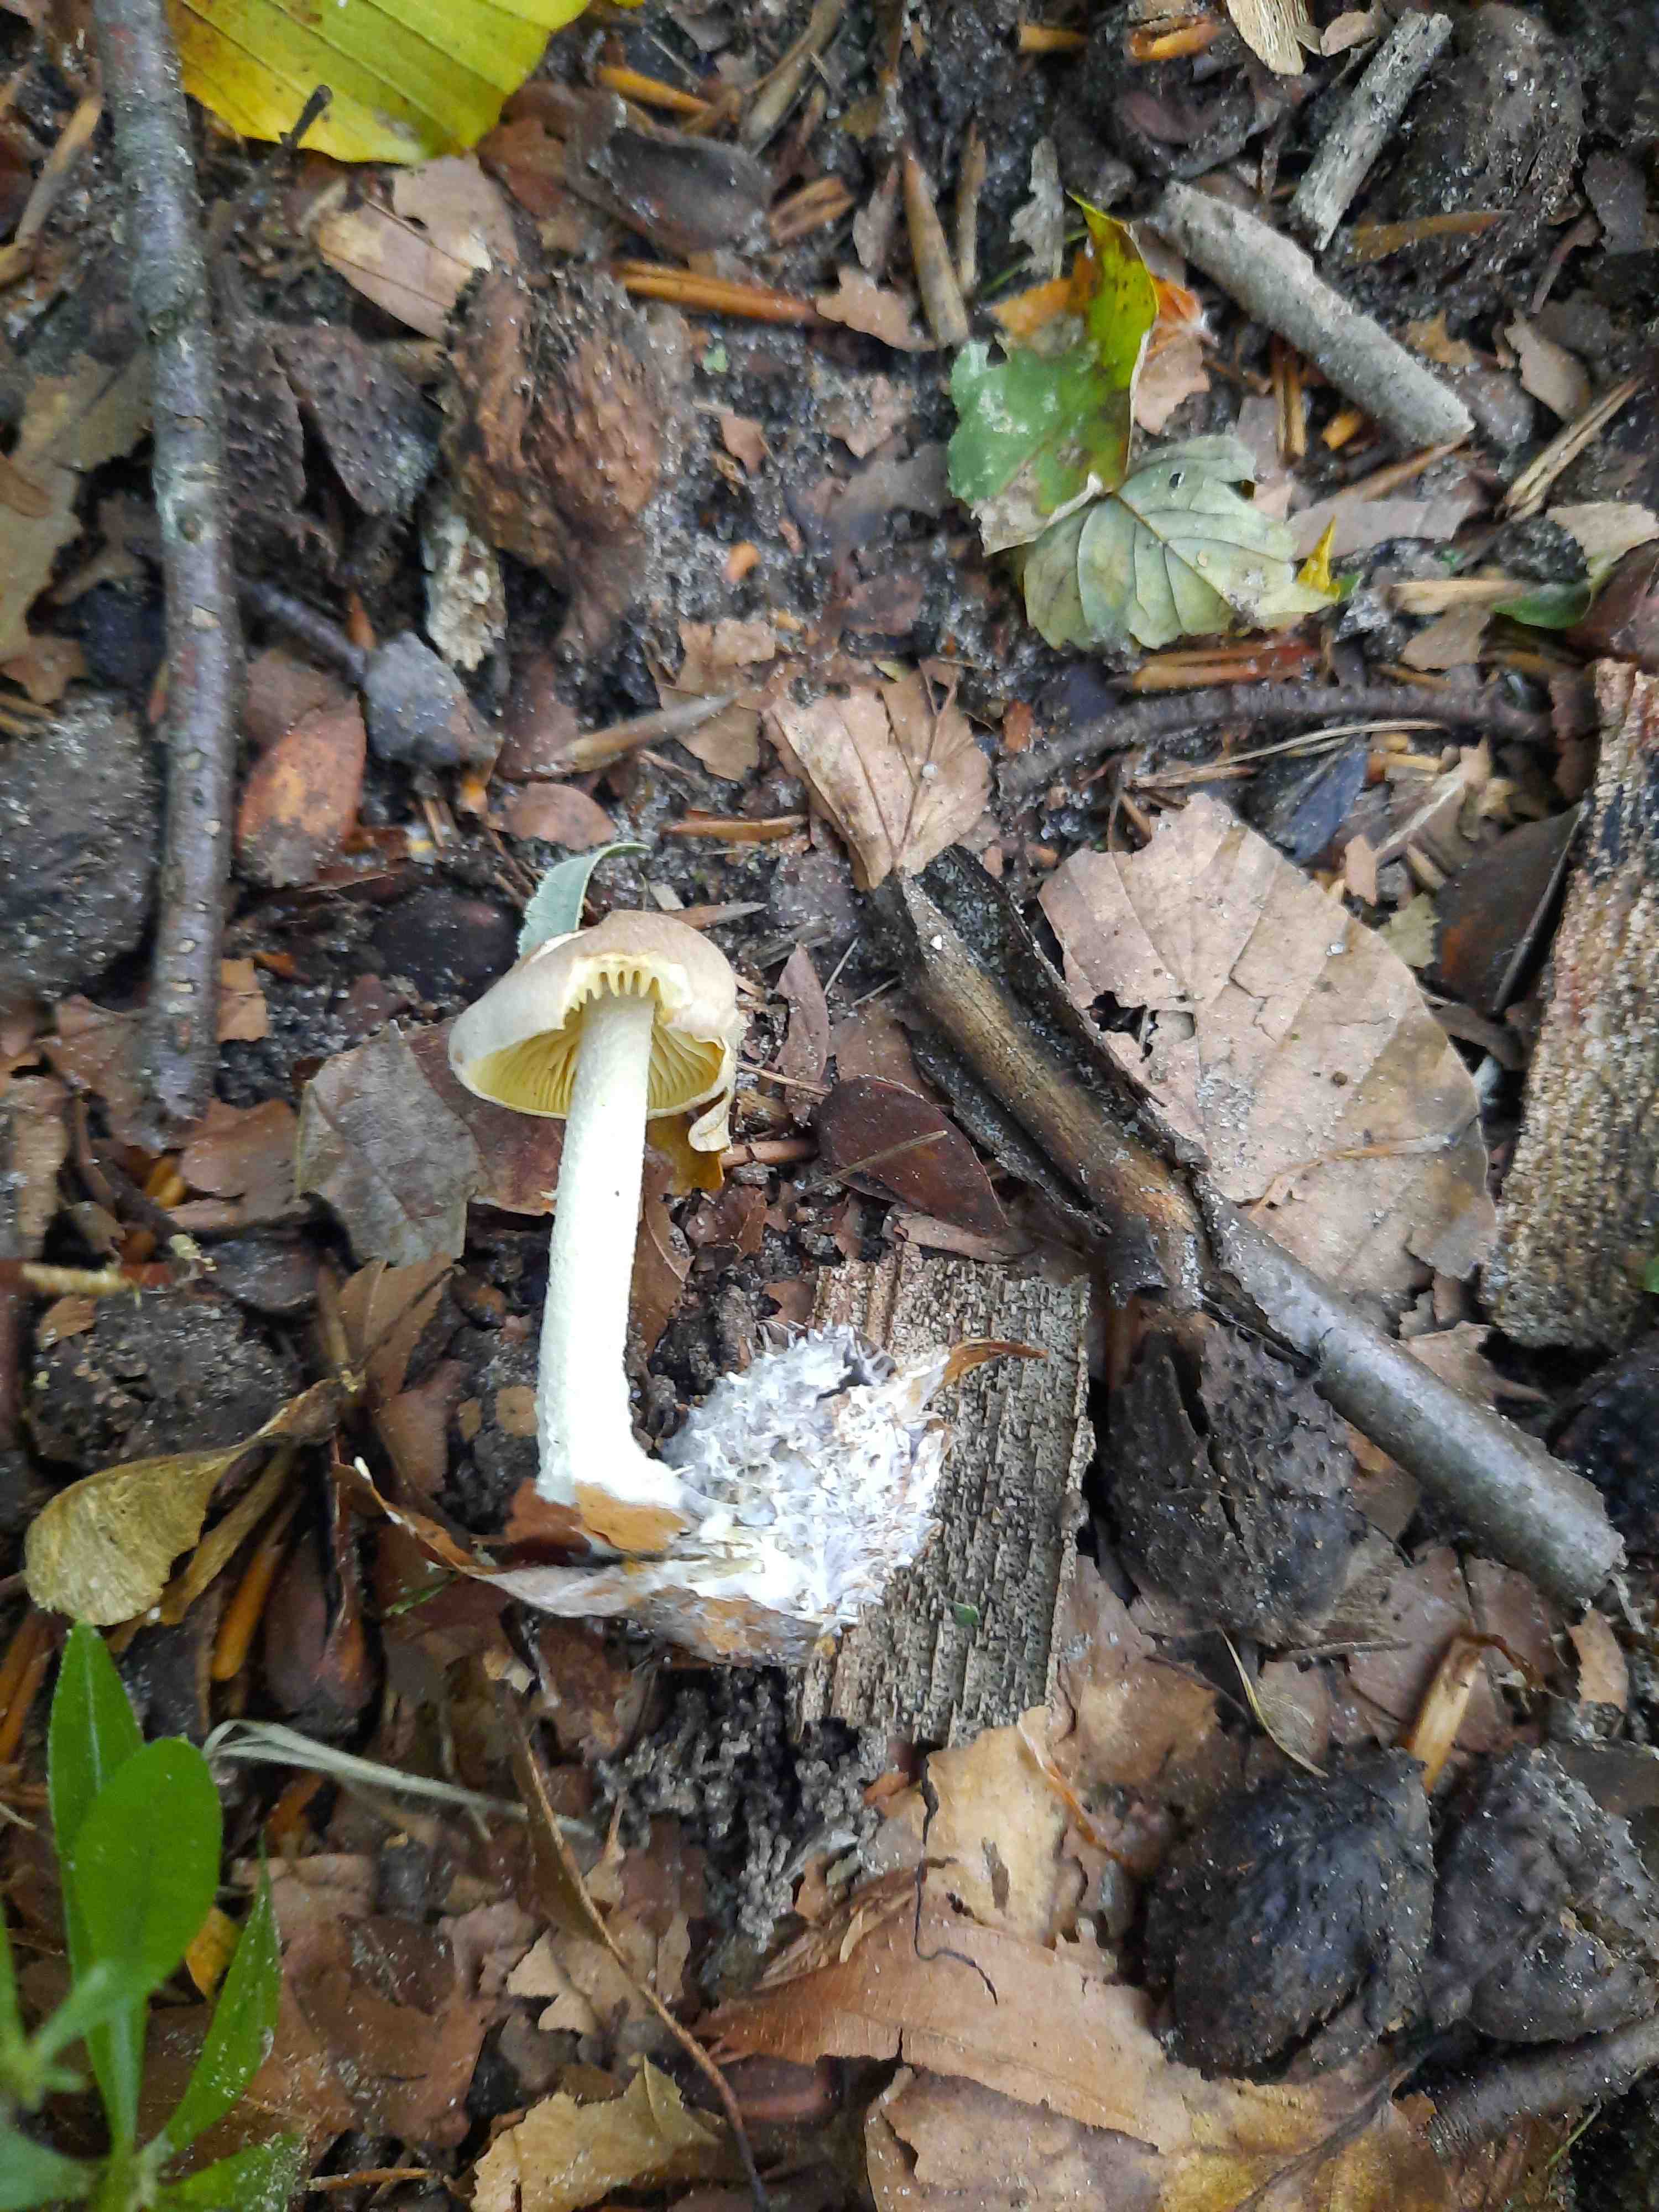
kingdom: Fungi
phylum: Basidiomycota
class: Agaricomycetes
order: Agaricales
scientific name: Agaricales
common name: champignonordenen
